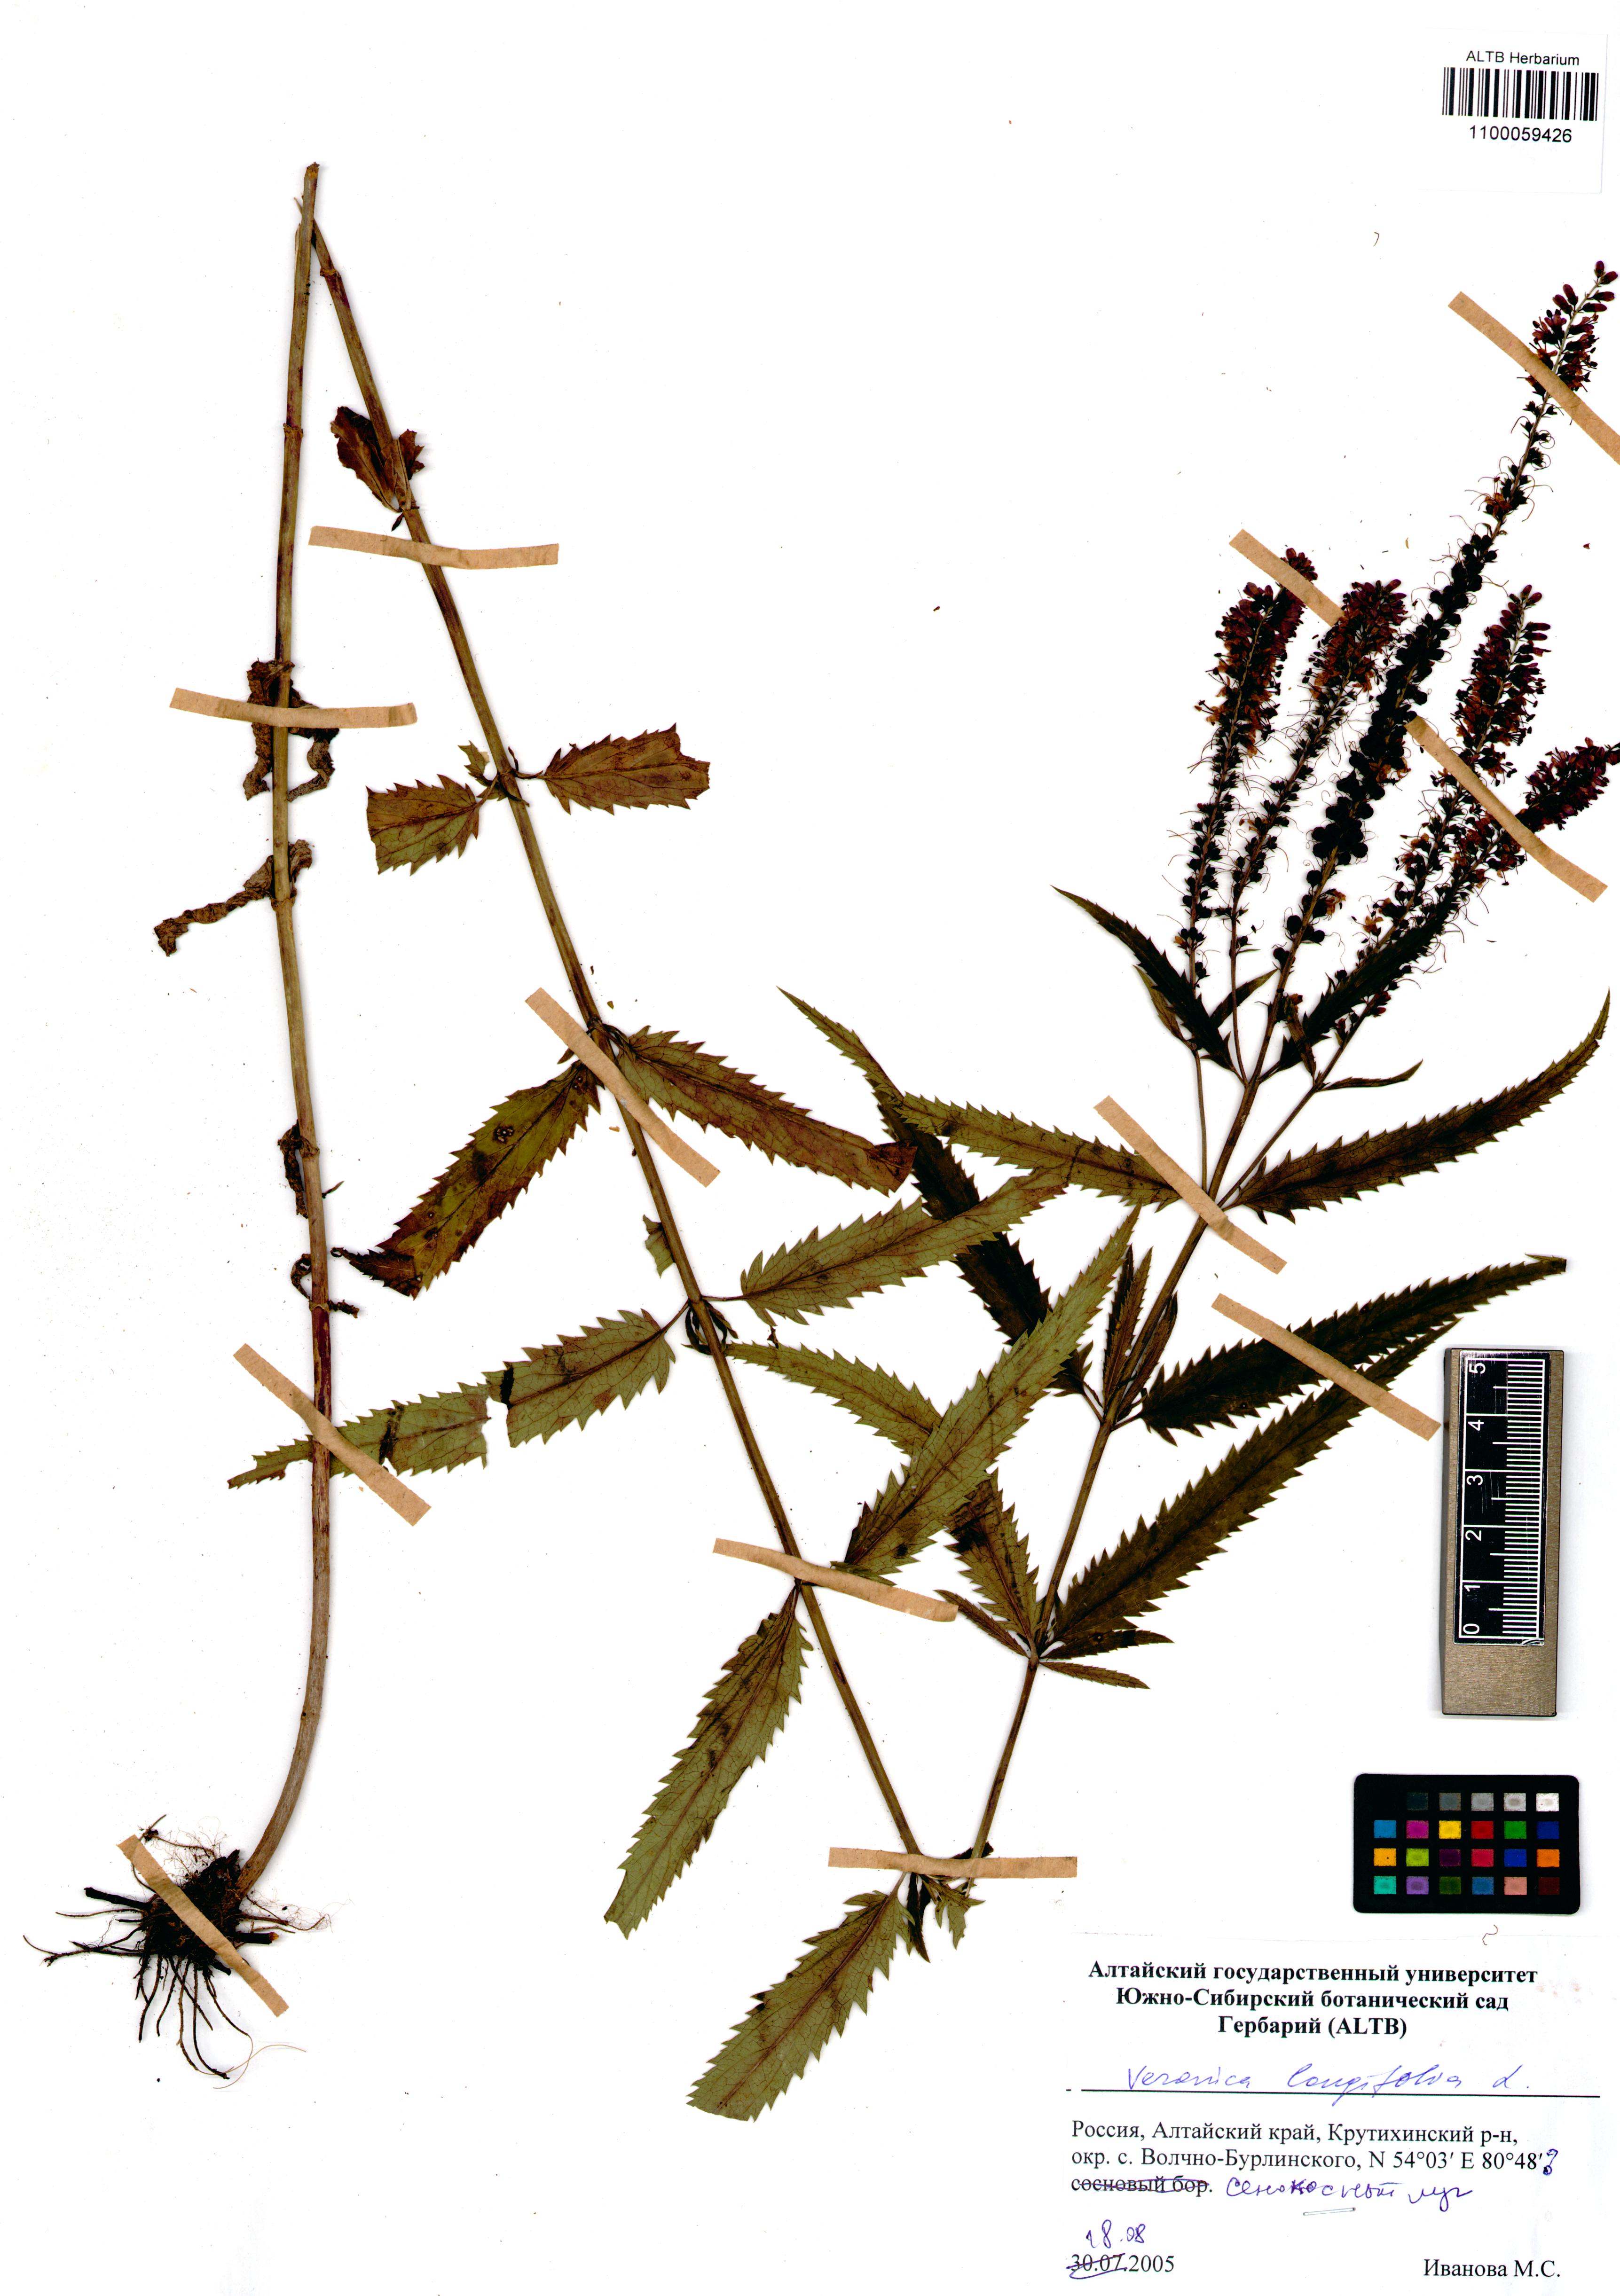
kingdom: Plantae
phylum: Tracheophyta
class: Magnoliopsida
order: Lamiales
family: Plantaginaceae
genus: Veronica
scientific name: Veronica longifolia
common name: Garden speedwell
